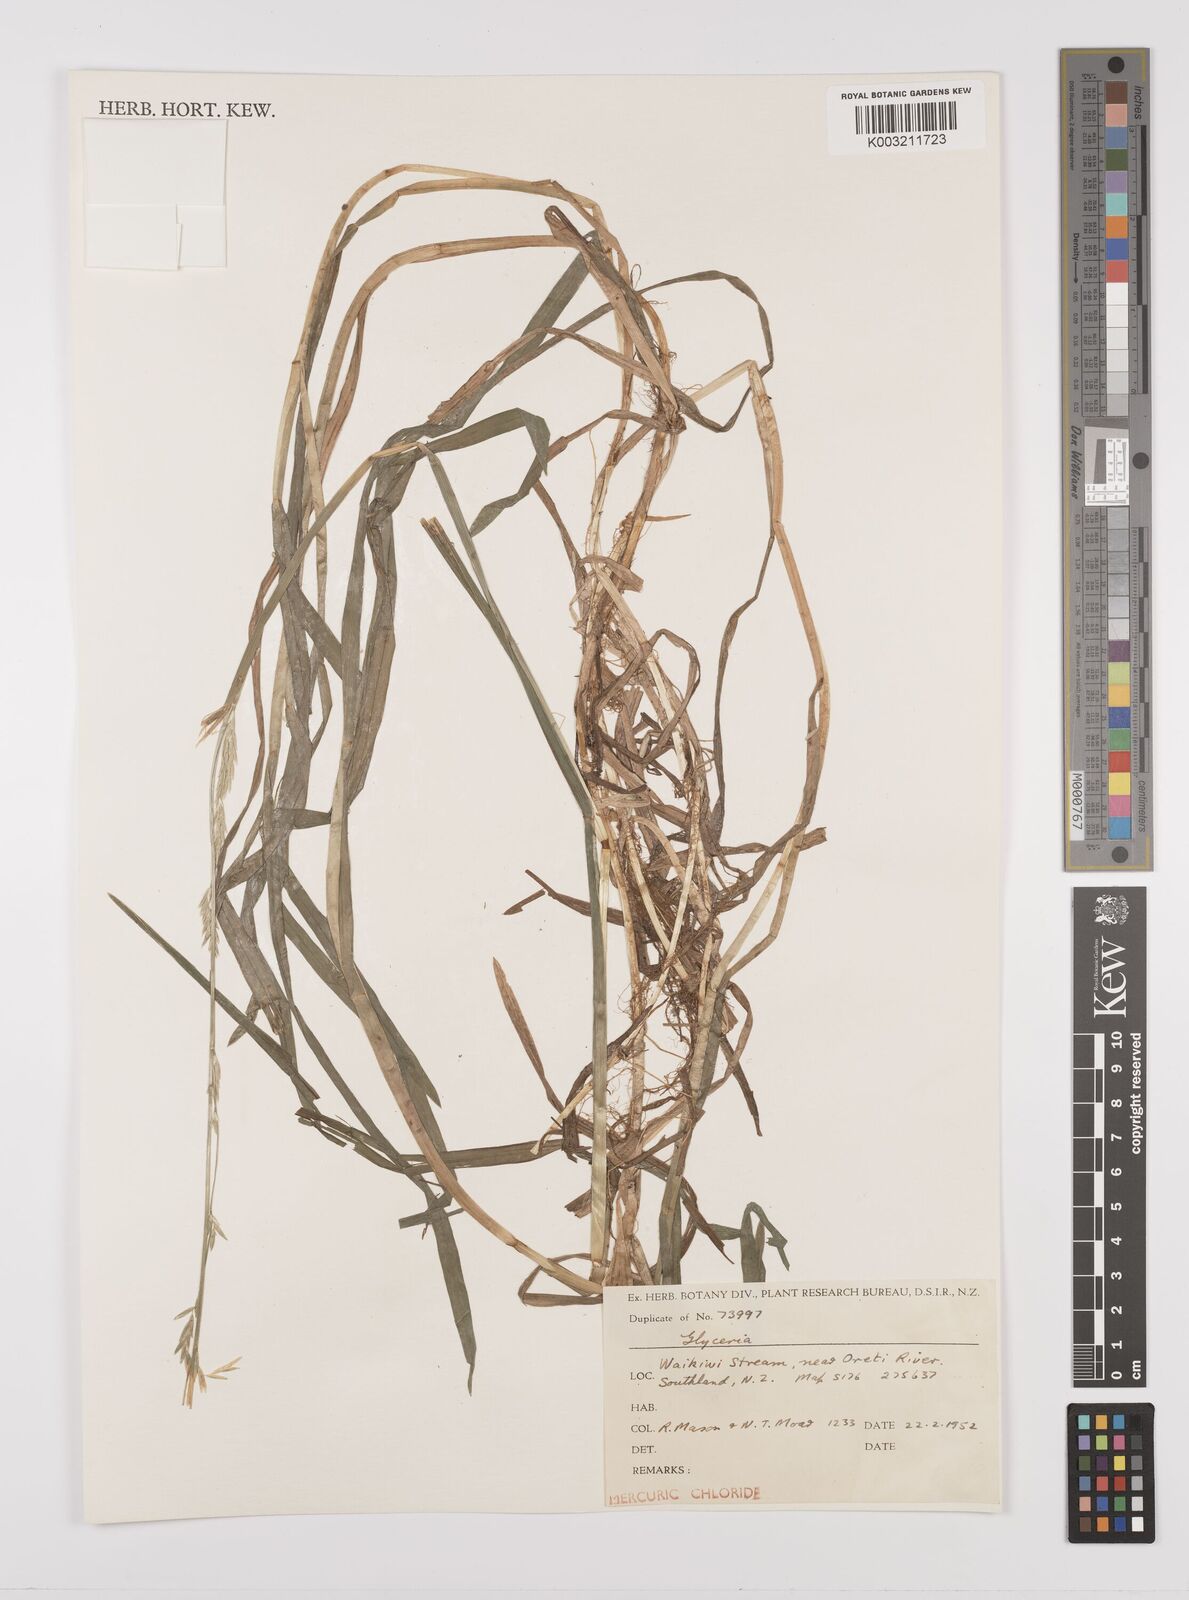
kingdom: Plantae
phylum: Tracheophyta
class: Liliopsida
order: Poales
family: Poaceae
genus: Glyceria
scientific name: Glyceria fluitans
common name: Floating sweet-grass
